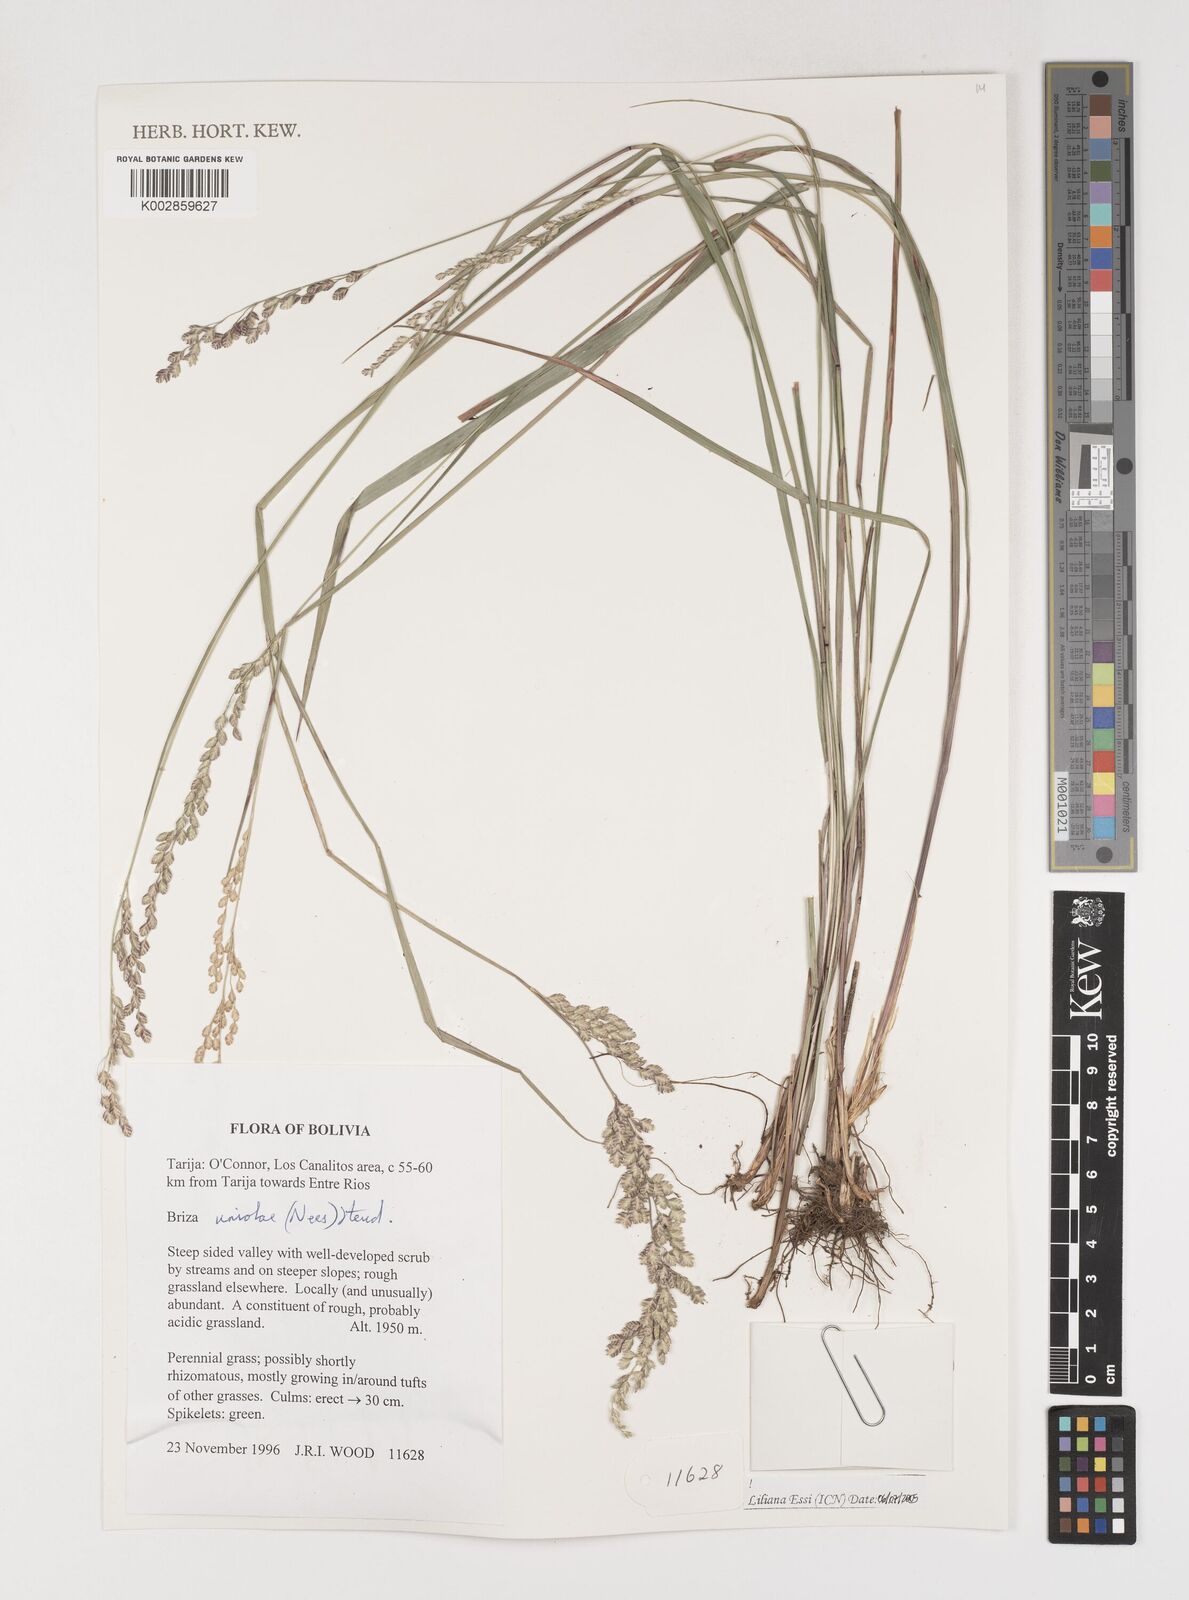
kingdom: Plantae
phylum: Tracheophyta
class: Liliopsida
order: Poales
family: Poaceae
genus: Poidium
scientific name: Poidium uniolae
